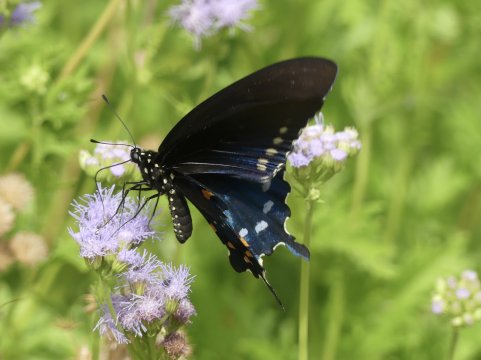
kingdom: Animalia
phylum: Arthropoda
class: Insecta
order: Lepidoptera
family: Papilionidae
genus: Battus
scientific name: Battus philenor
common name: Pipevine Swallowtail
